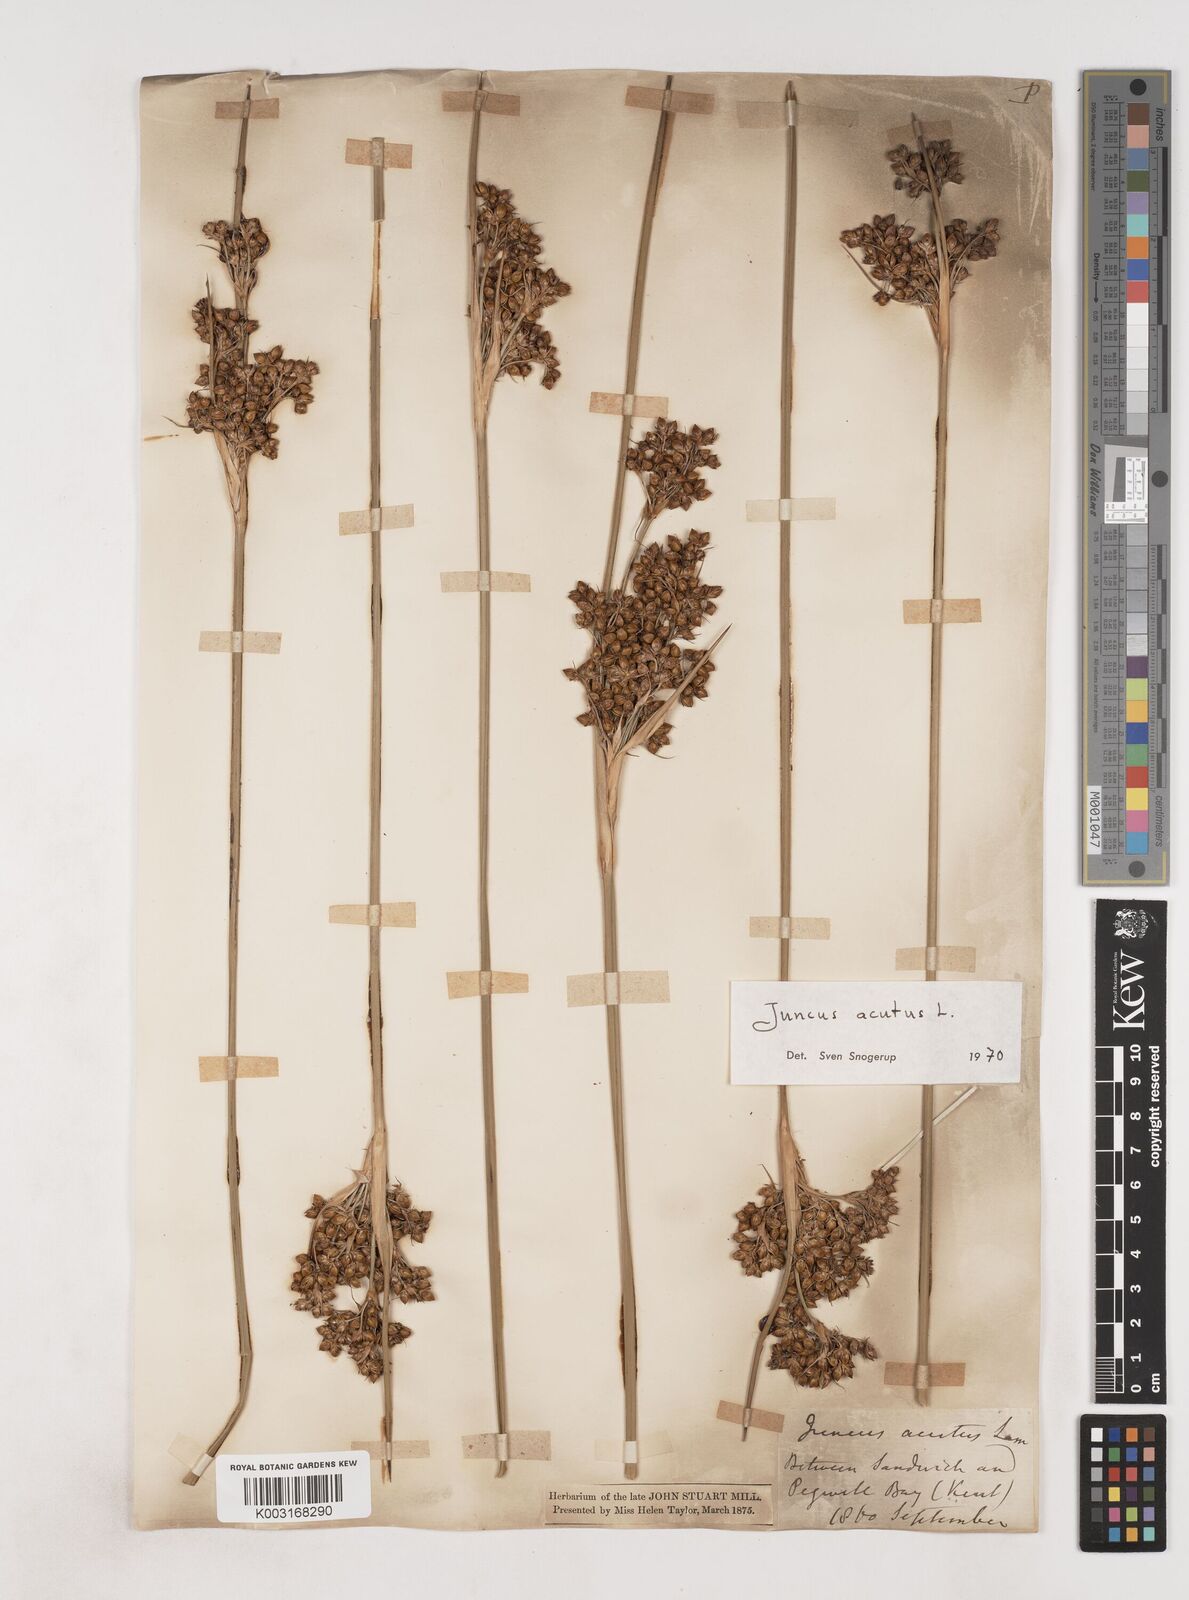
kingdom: Plantae
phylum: Tracheophyta
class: Liliopsida
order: Poales
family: Juncaceae
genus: Juncus
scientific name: Juncus acutus
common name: Sharp rush
